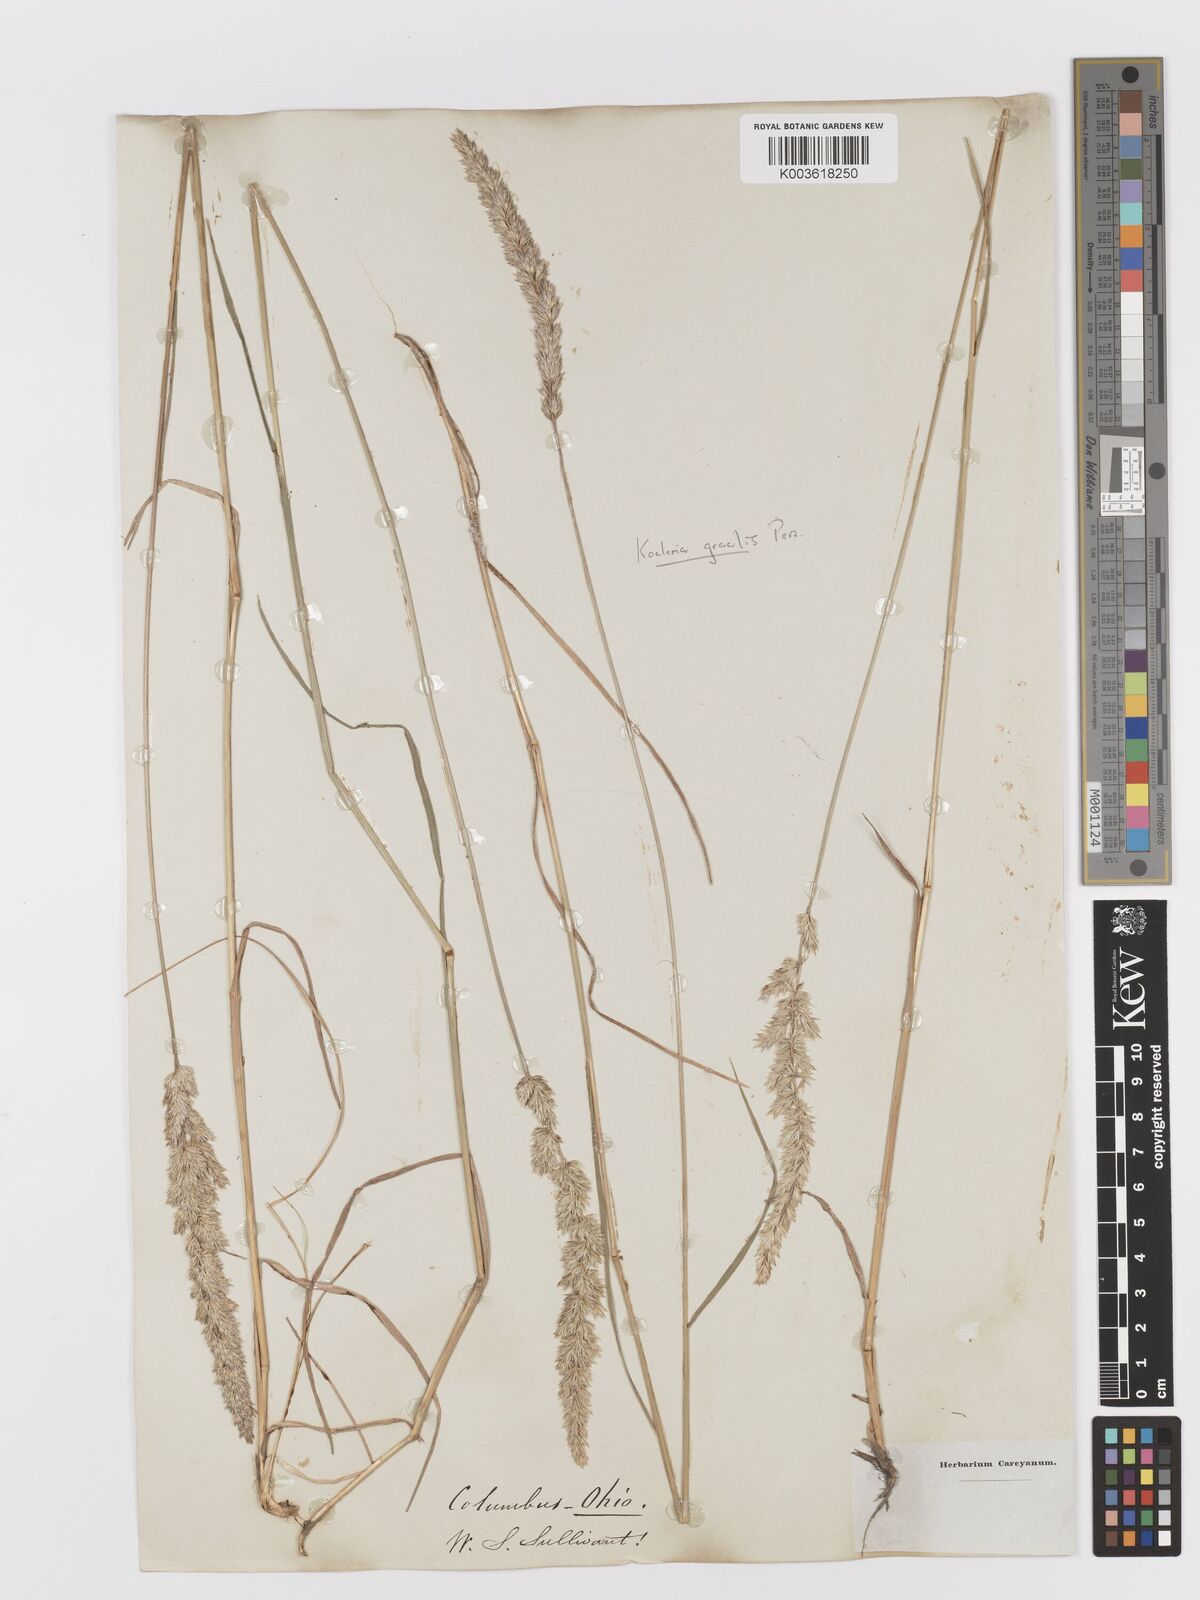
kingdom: Plantae
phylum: Tracheophyta
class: Liliopsida
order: Poales
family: Poaceae
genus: Koeleria
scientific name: Koeleria macrantha
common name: Crested hair-grass
